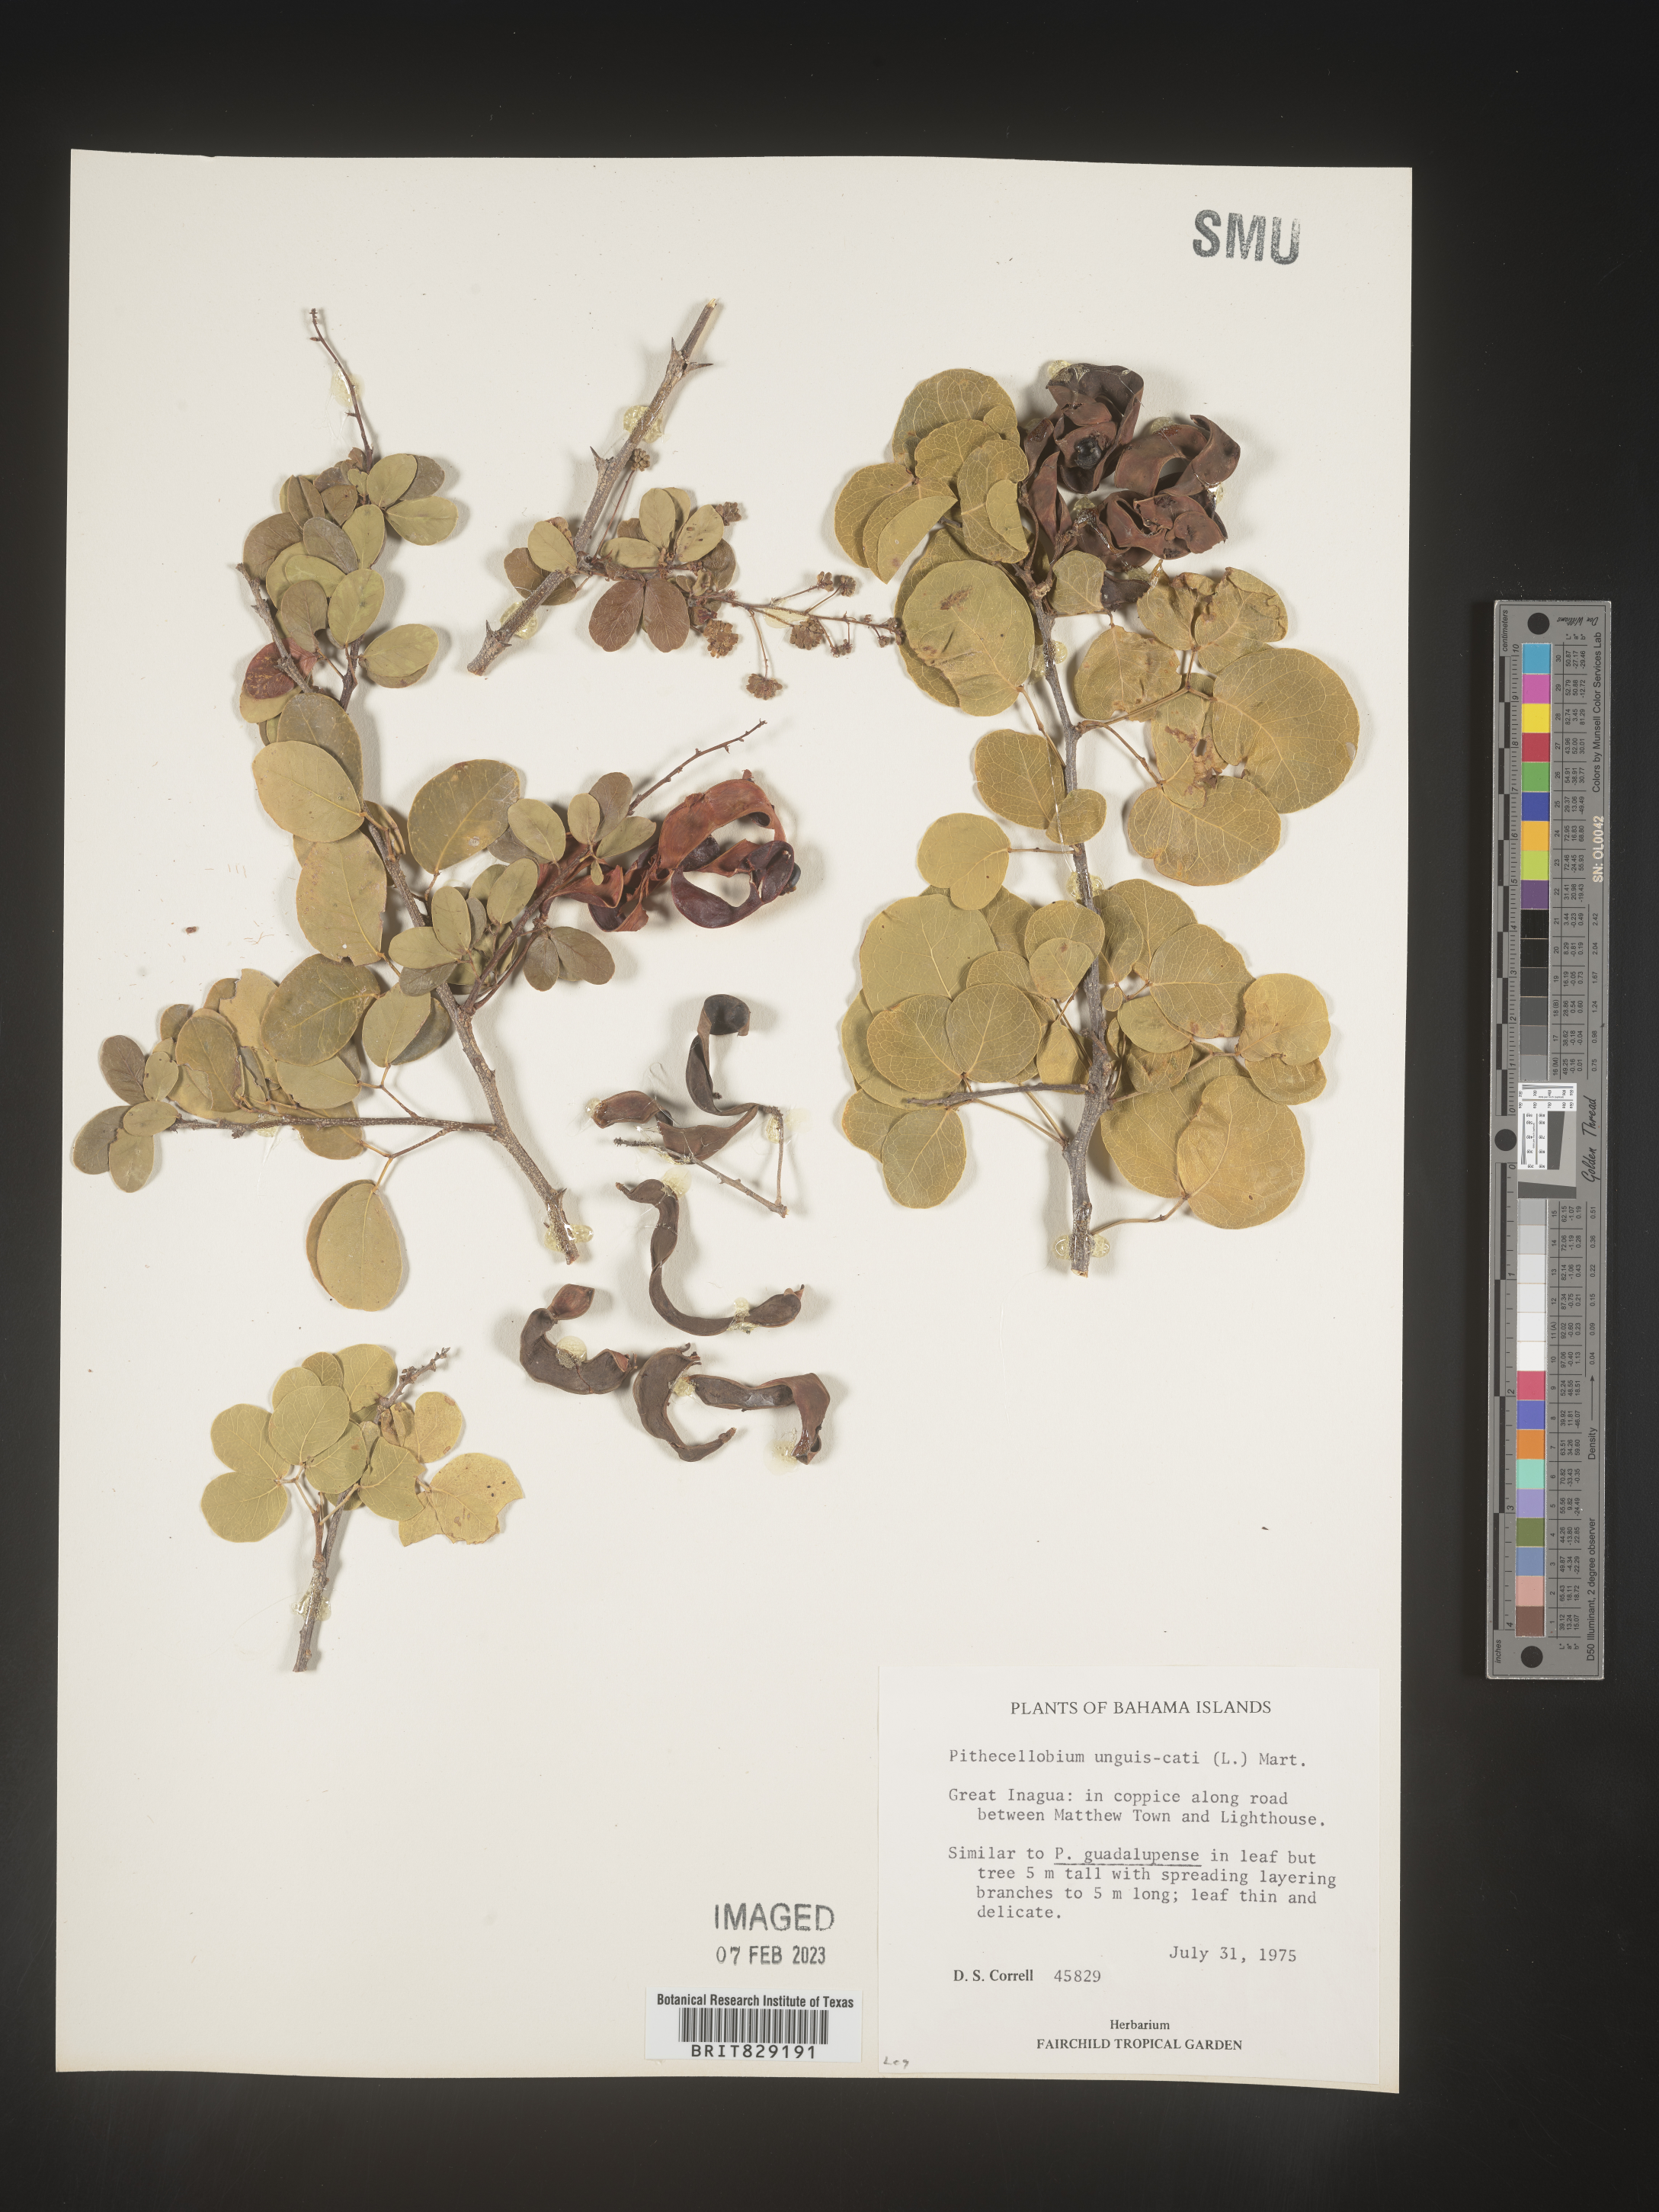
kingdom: Plantae
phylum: Tracheophyta
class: Magnoliopsida
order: Fabales
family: Fabaceae
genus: Pithecellobium
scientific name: Pithecellobium
